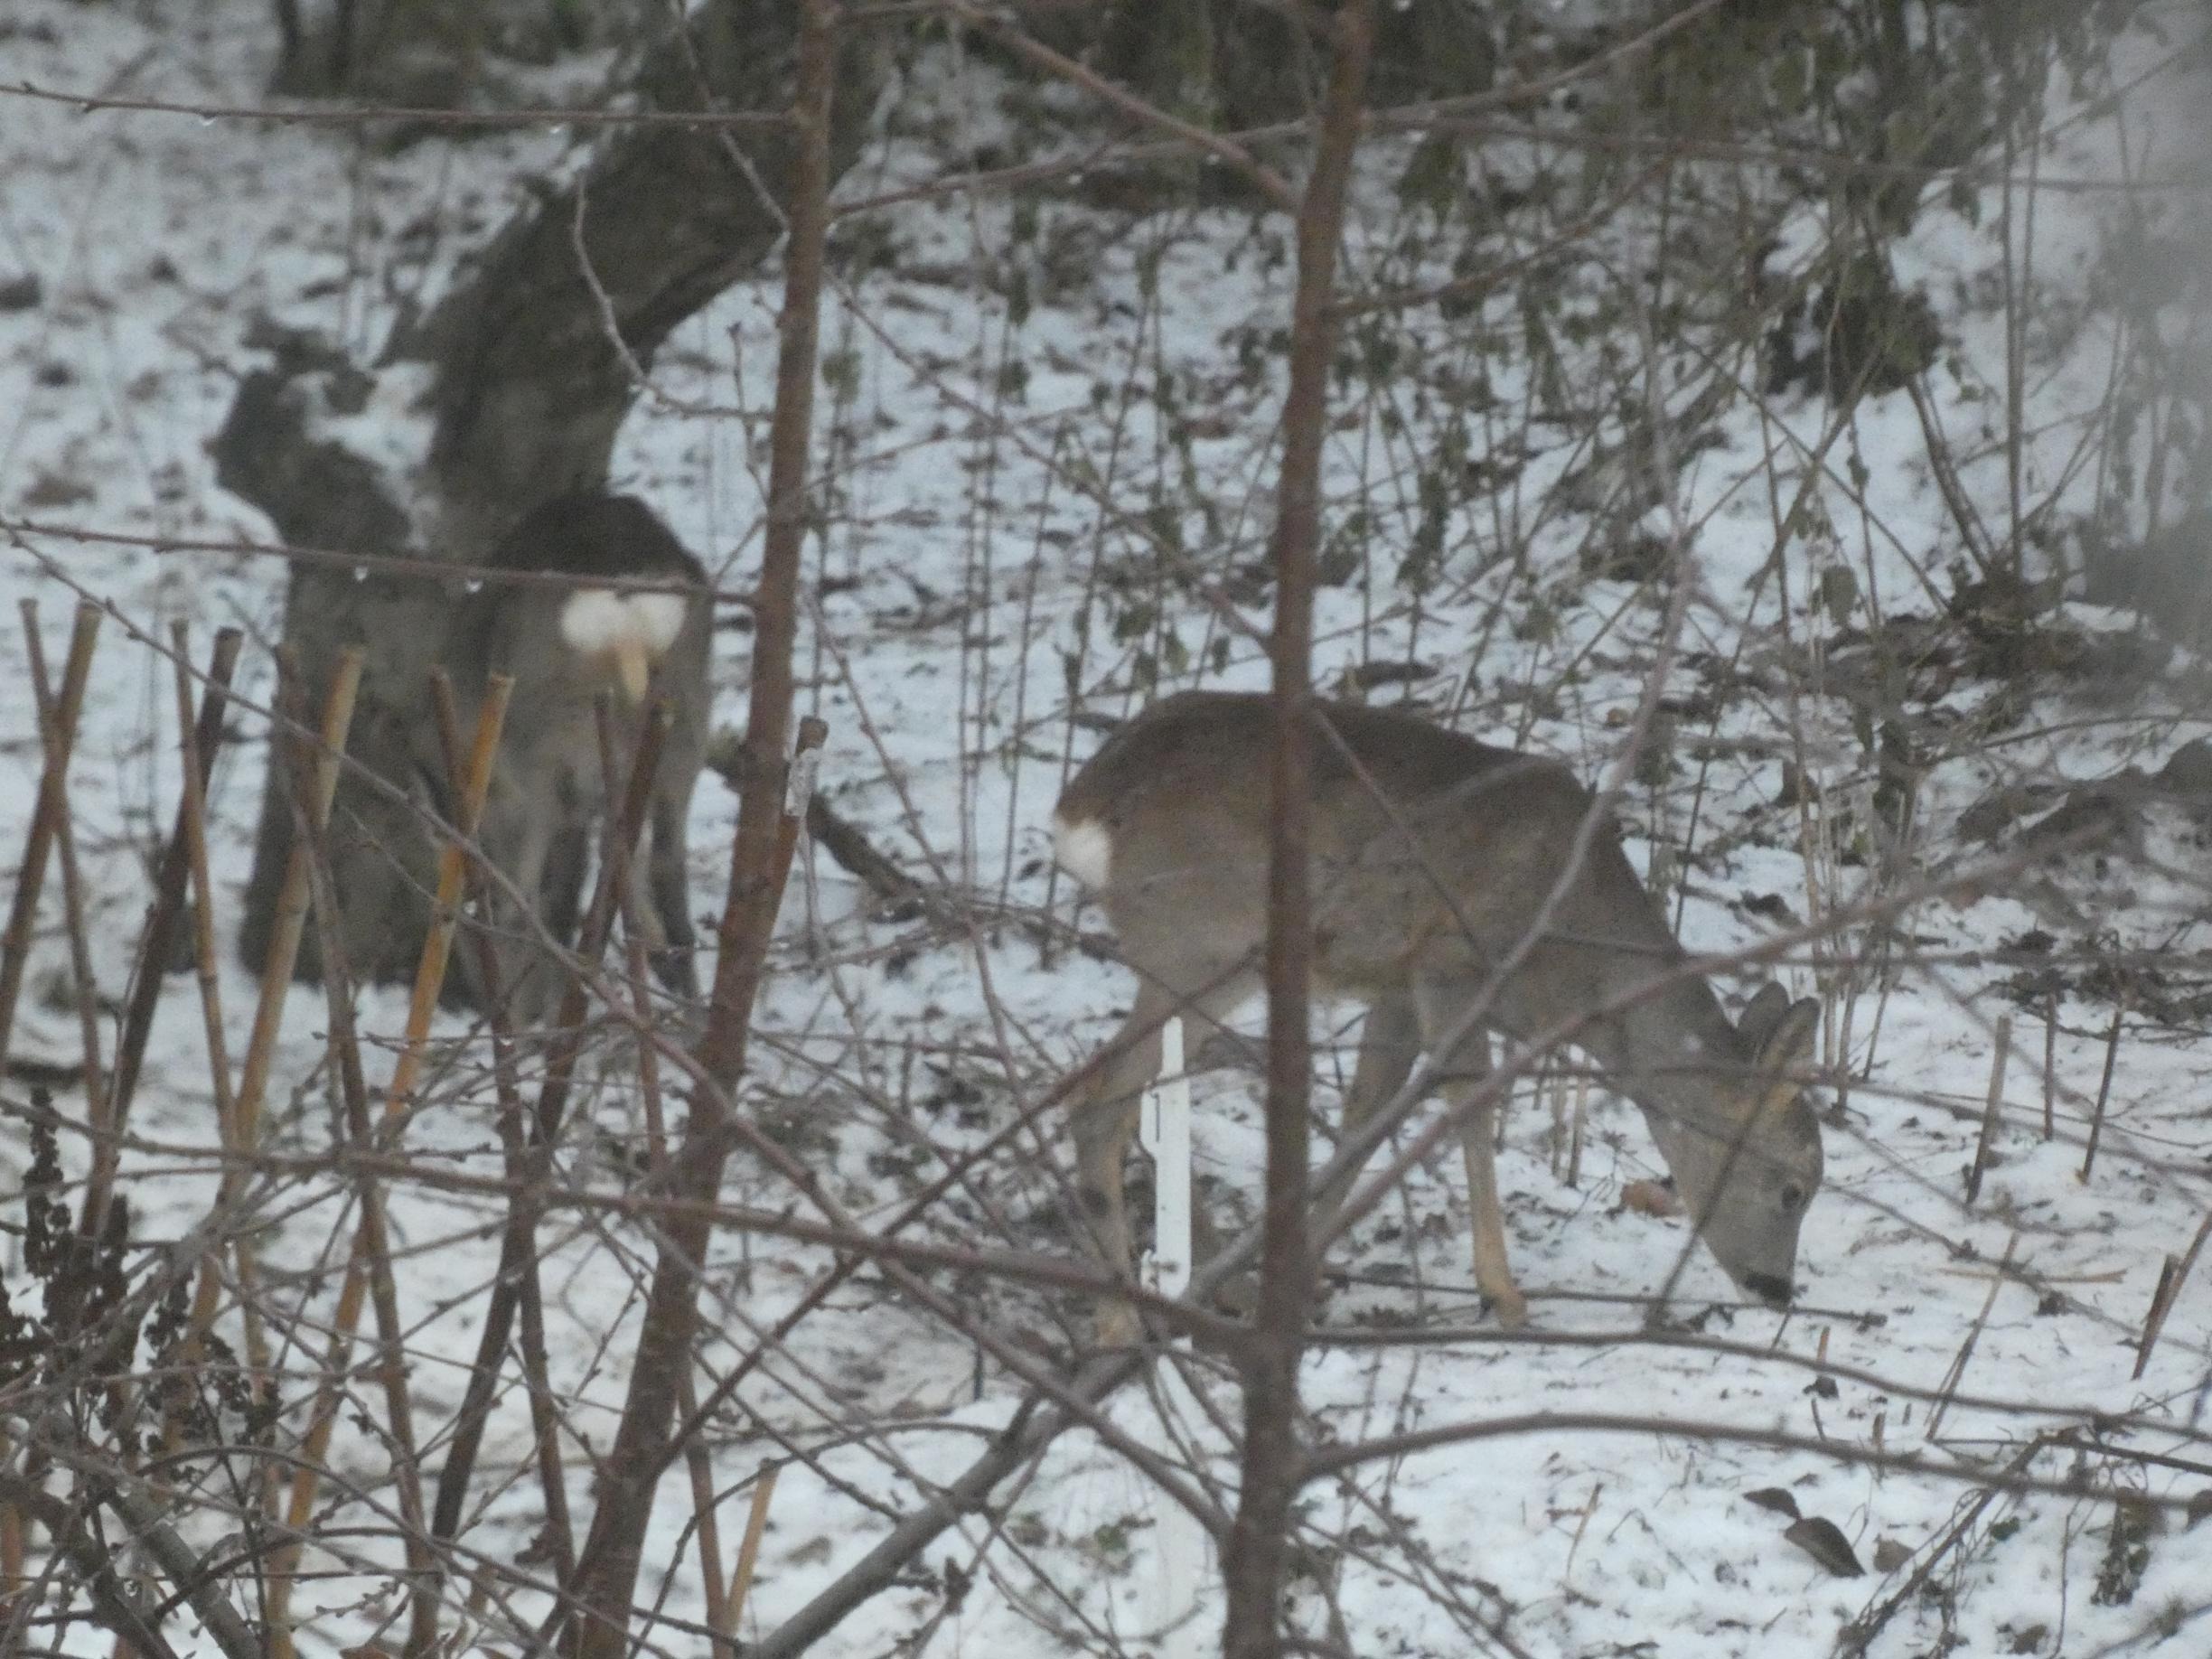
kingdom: Animalia
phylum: Chordata
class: Mammalia
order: Artiodactyla
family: Cervidae
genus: Capreolus
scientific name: Capreolus capreolus
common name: Rådyr
